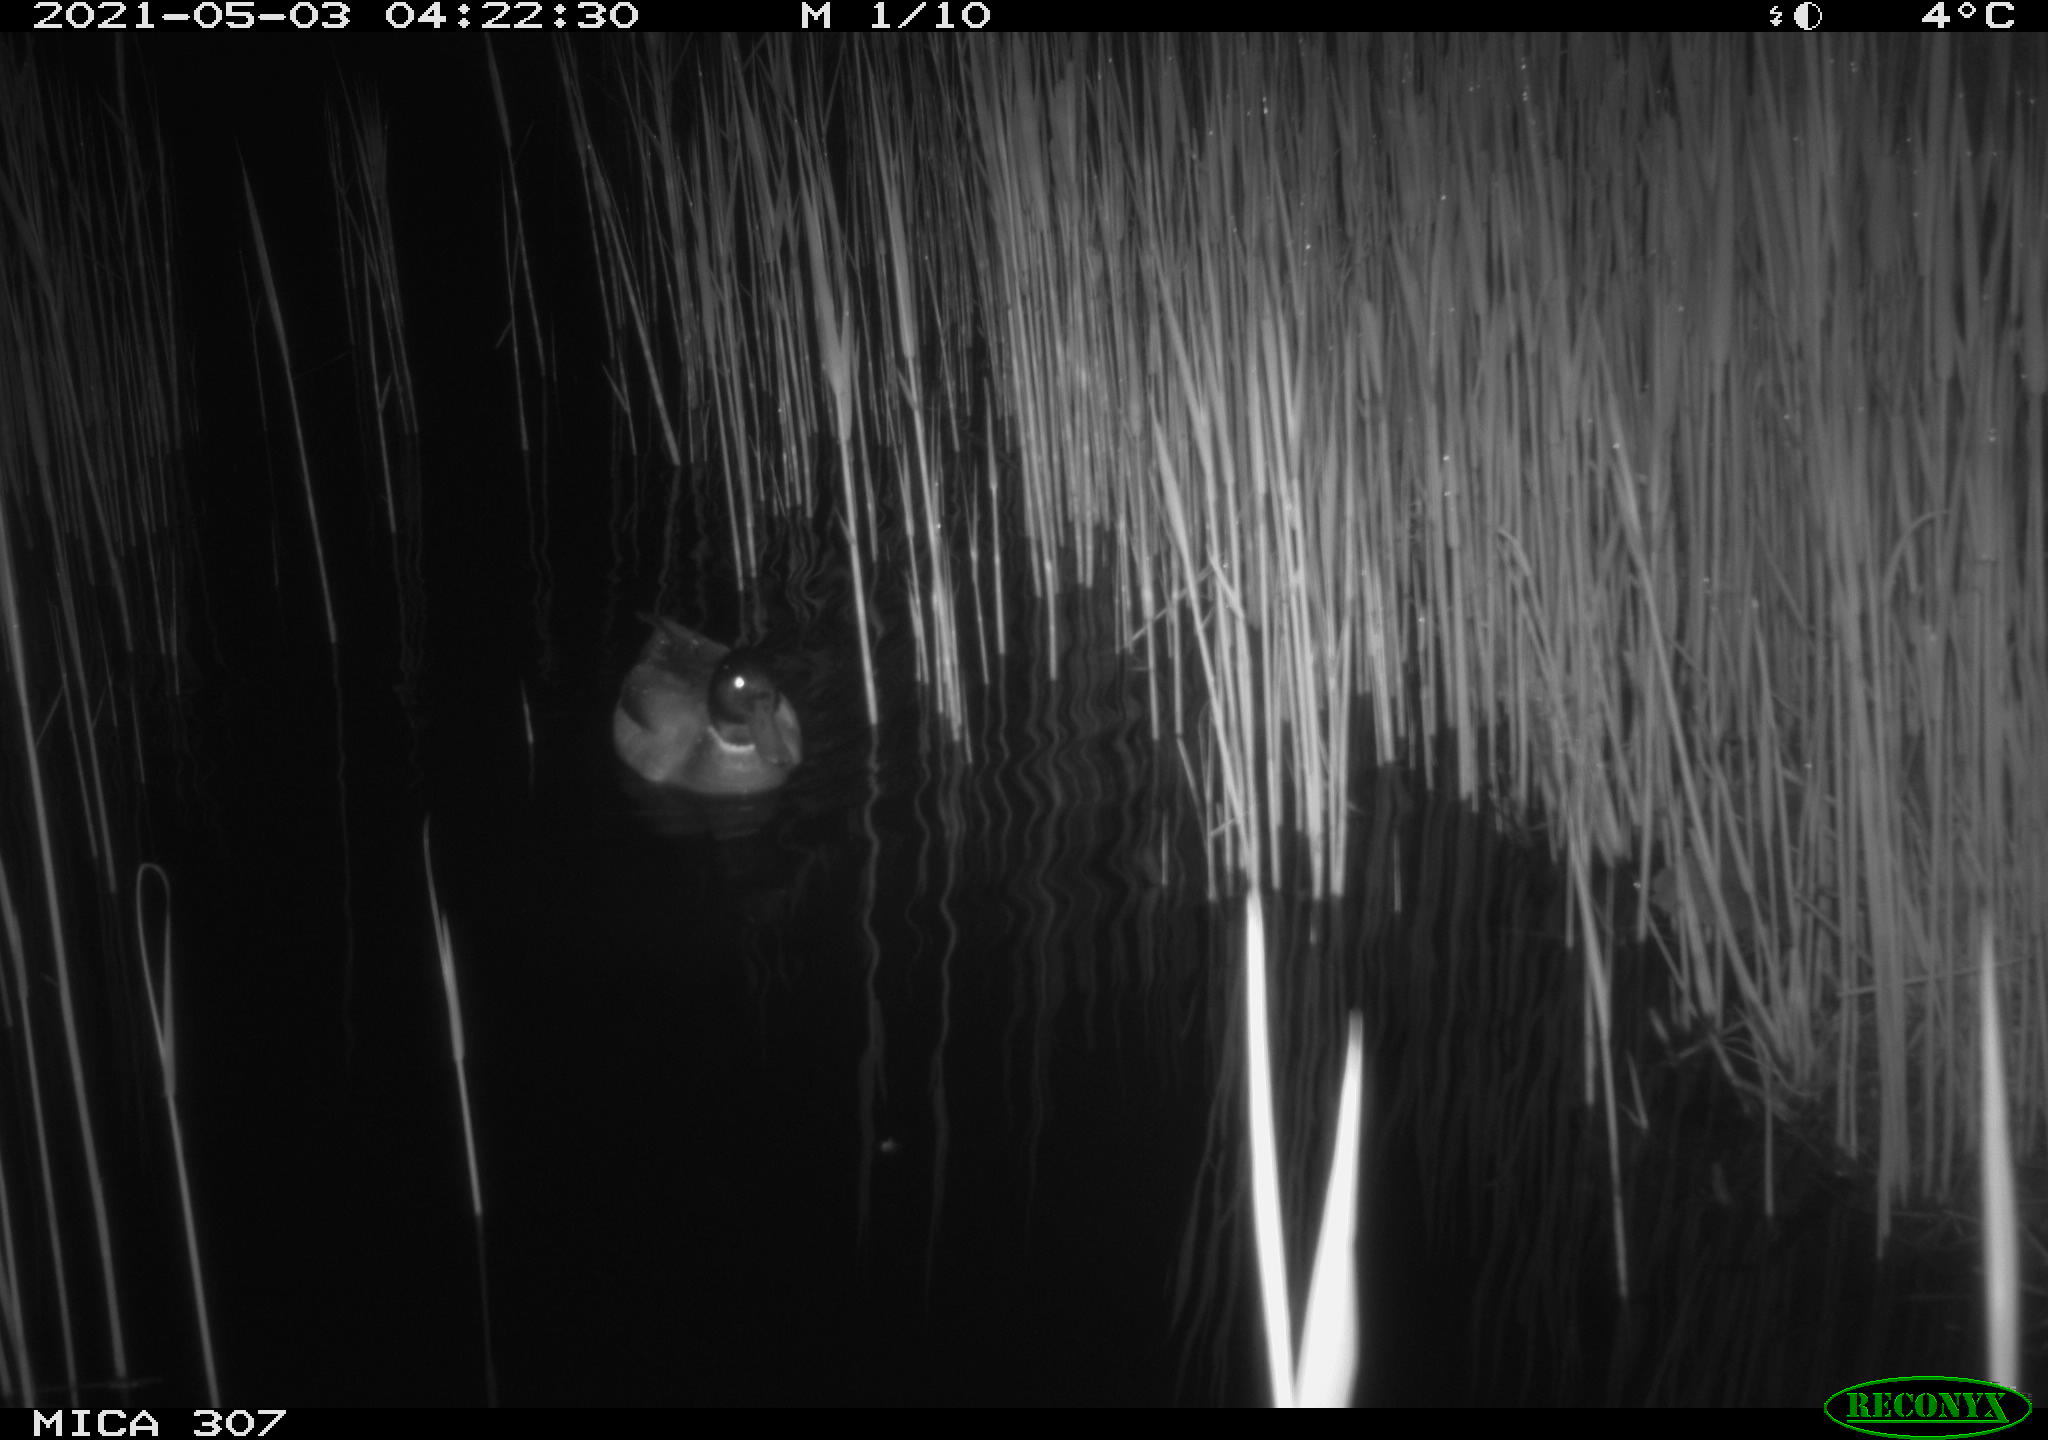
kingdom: Animalia
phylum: Chordata
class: Aves
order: Gruiformes
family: Rallidae
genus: Gallinula
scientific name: Gallinula chloropus
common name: Common moorhen
